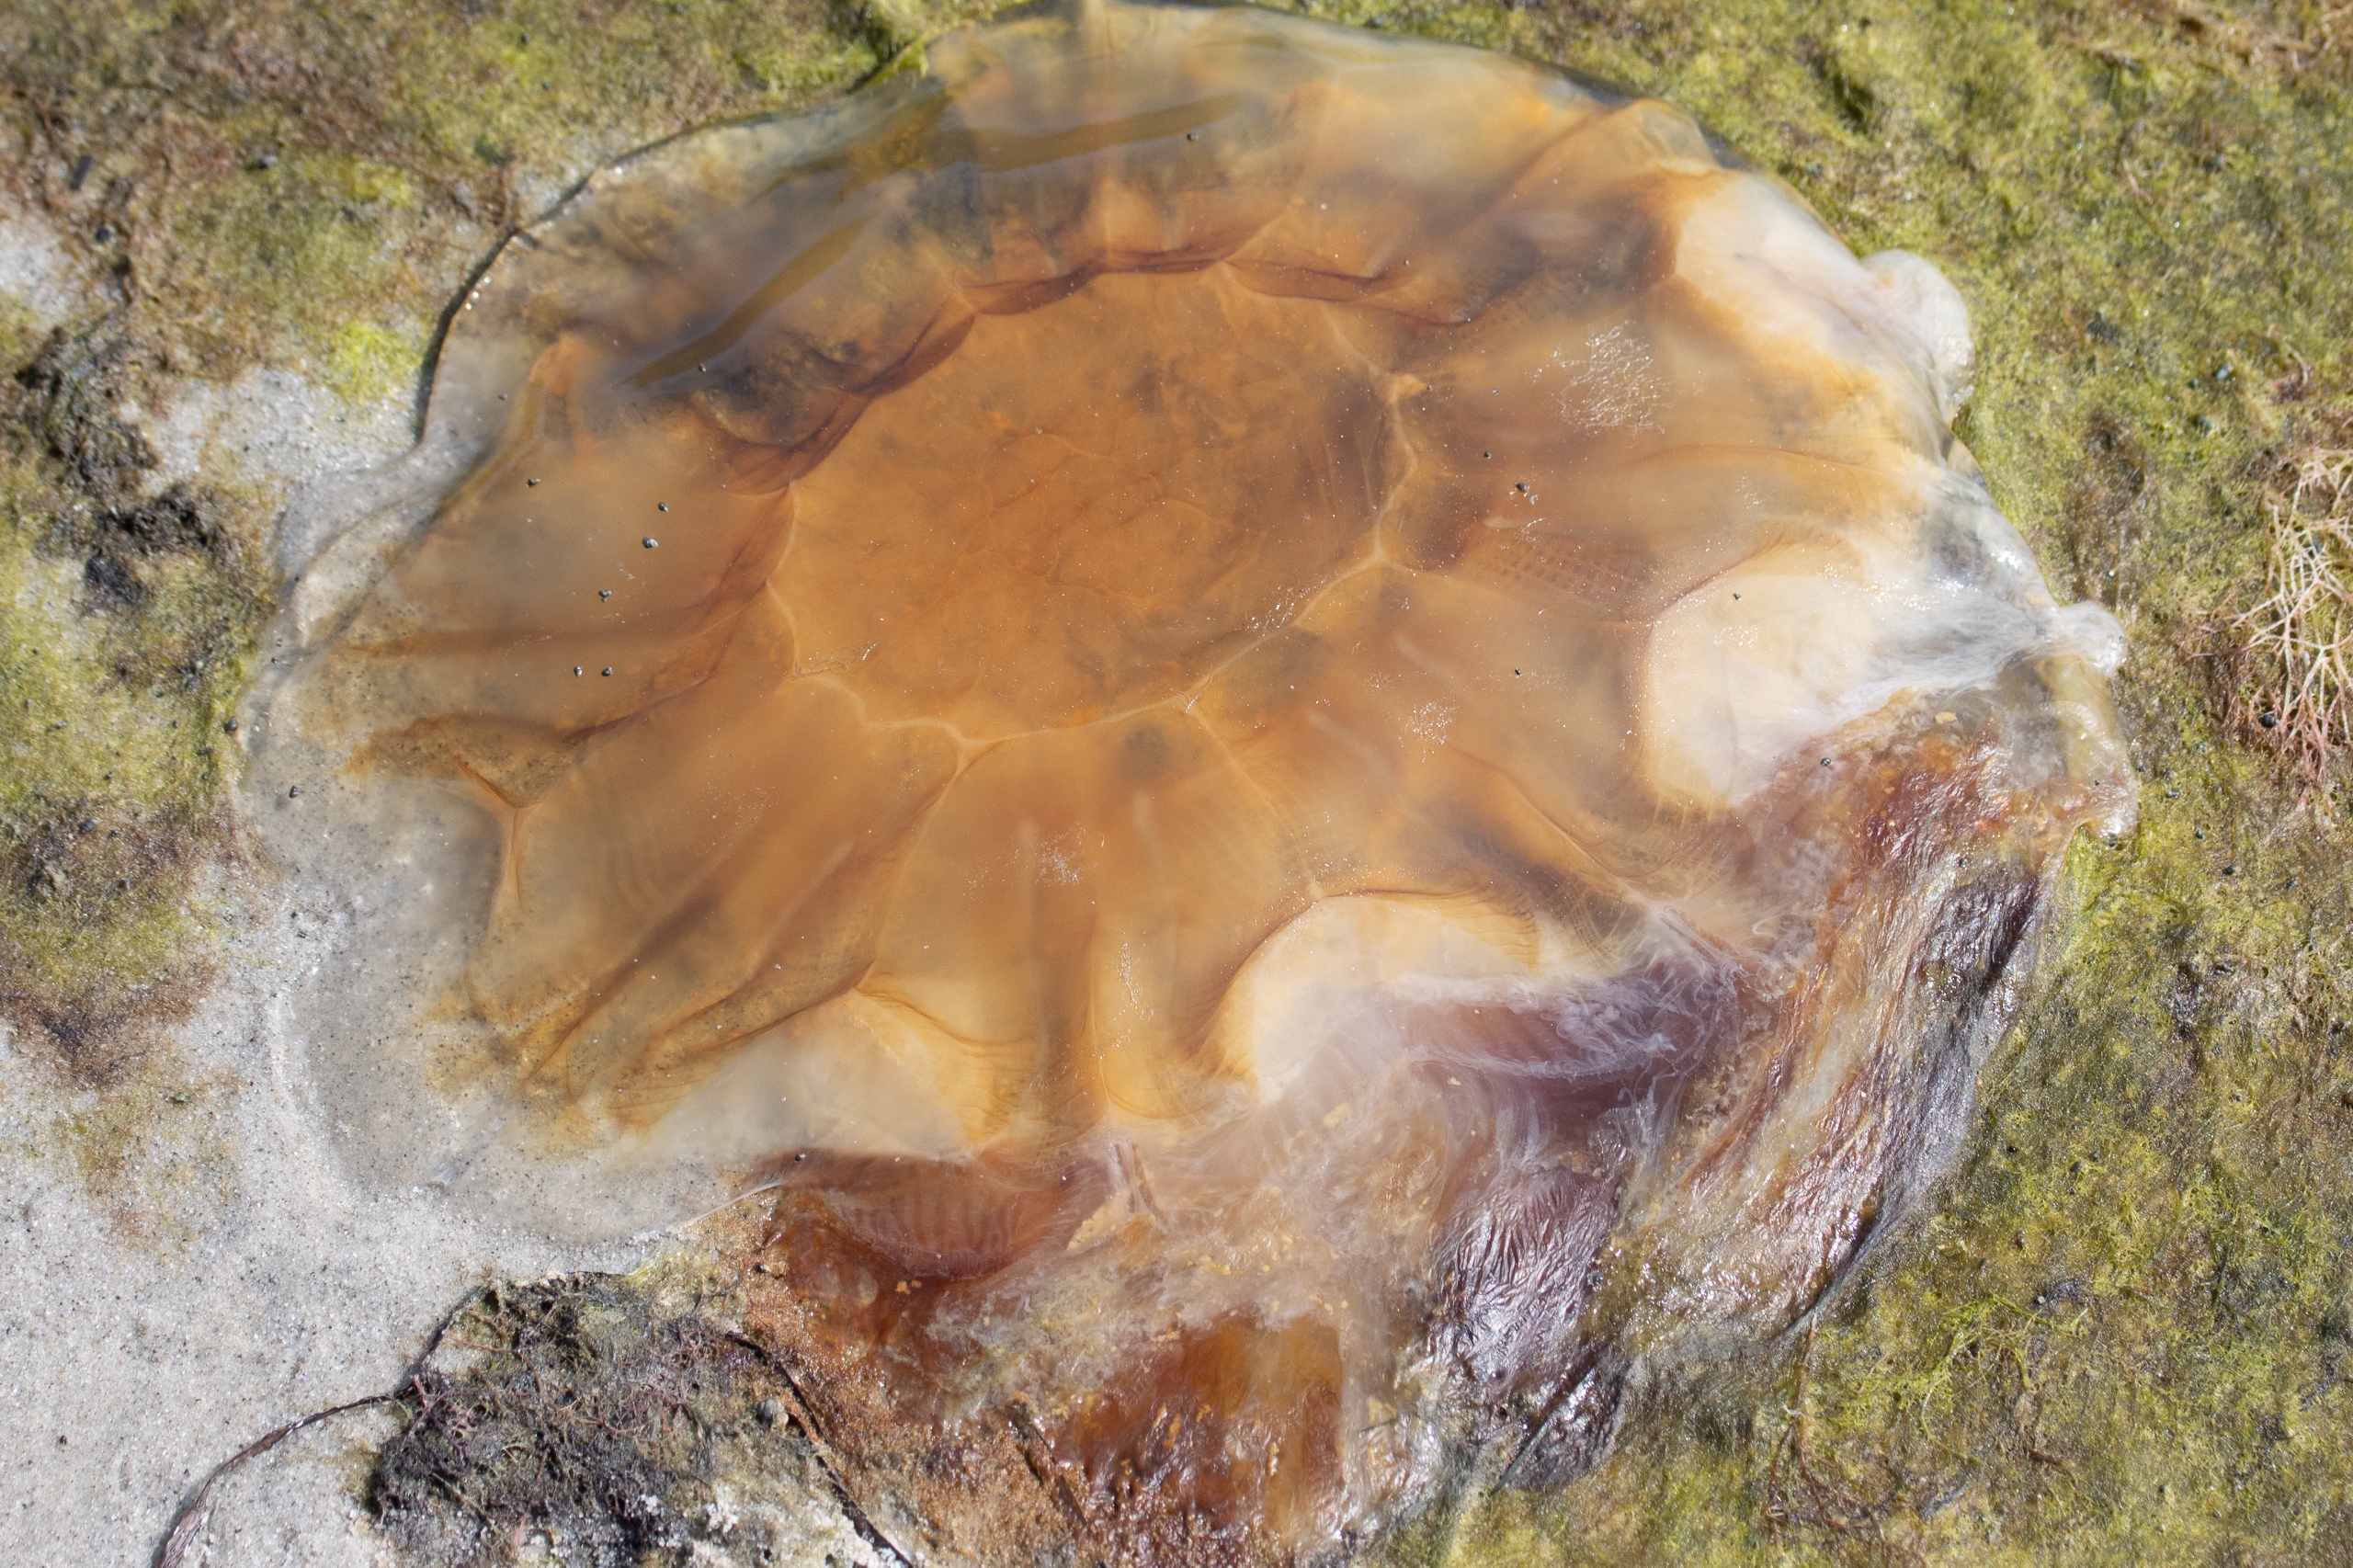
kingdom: Animalia
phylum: Cnidaria
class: Scyphozoa
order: Semaeostomeae
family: Cyaneidae
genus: Cyanea
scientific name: Cyanea capillata
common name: Rød brandmand
